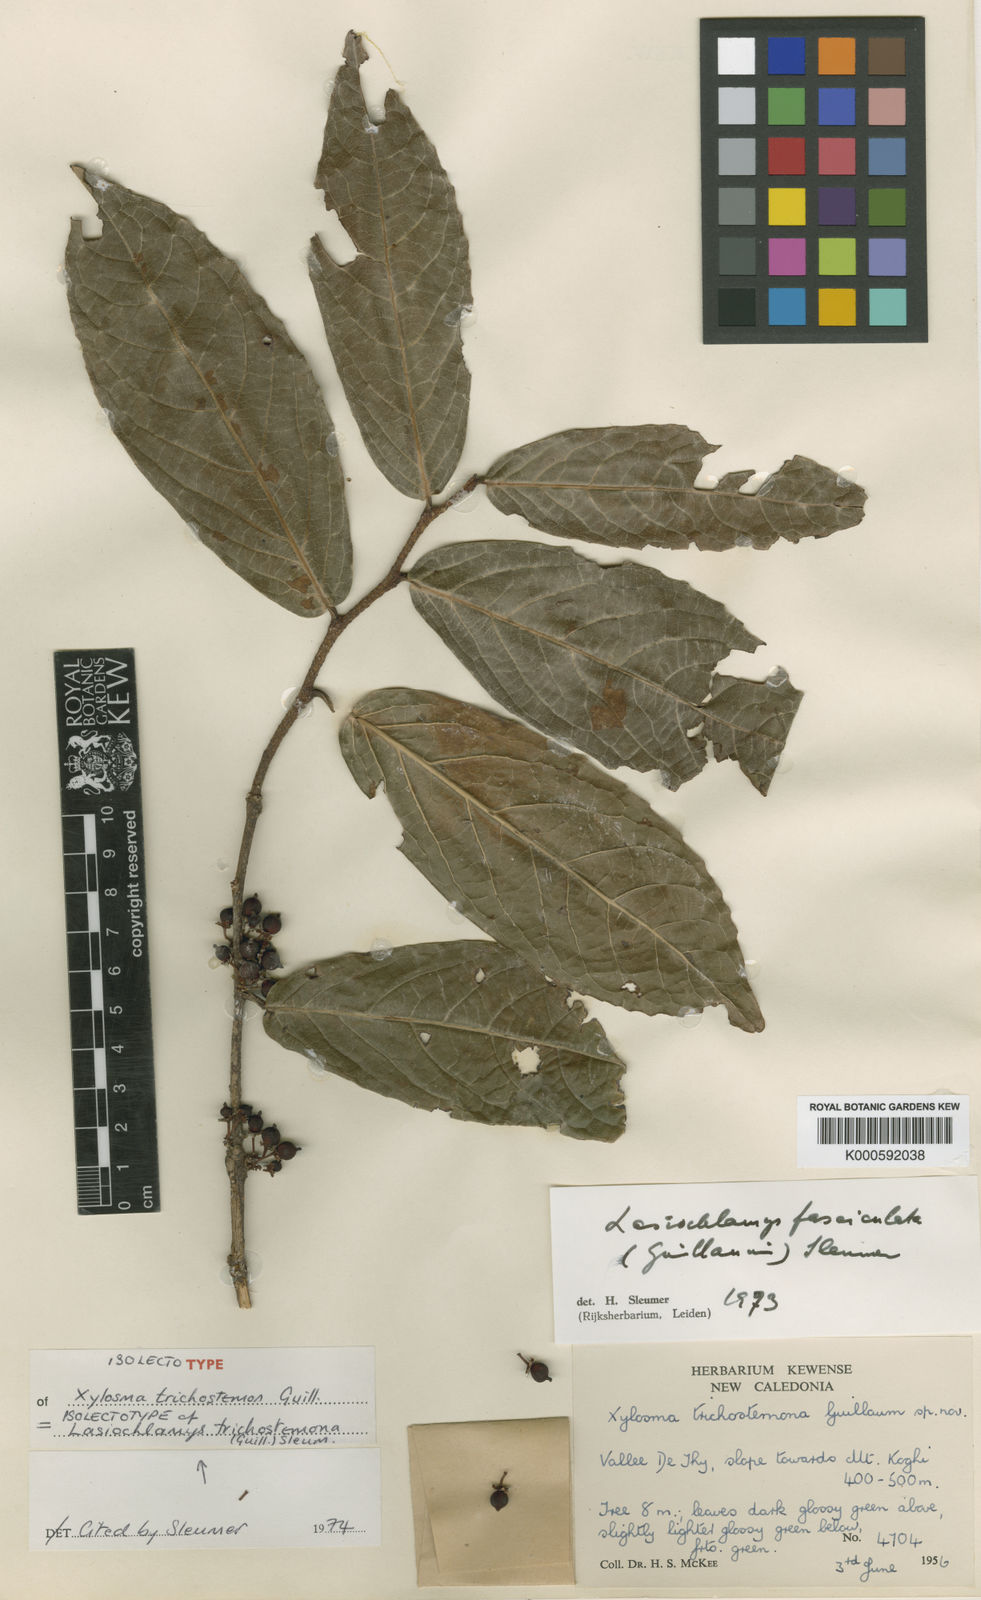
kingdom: Plantae
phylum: Tracheophyta
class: Magnoliopsida
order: Malpighiales
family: Salicaceae
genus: Lasiochlamys
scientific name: Lasiochlamys fasciculata
